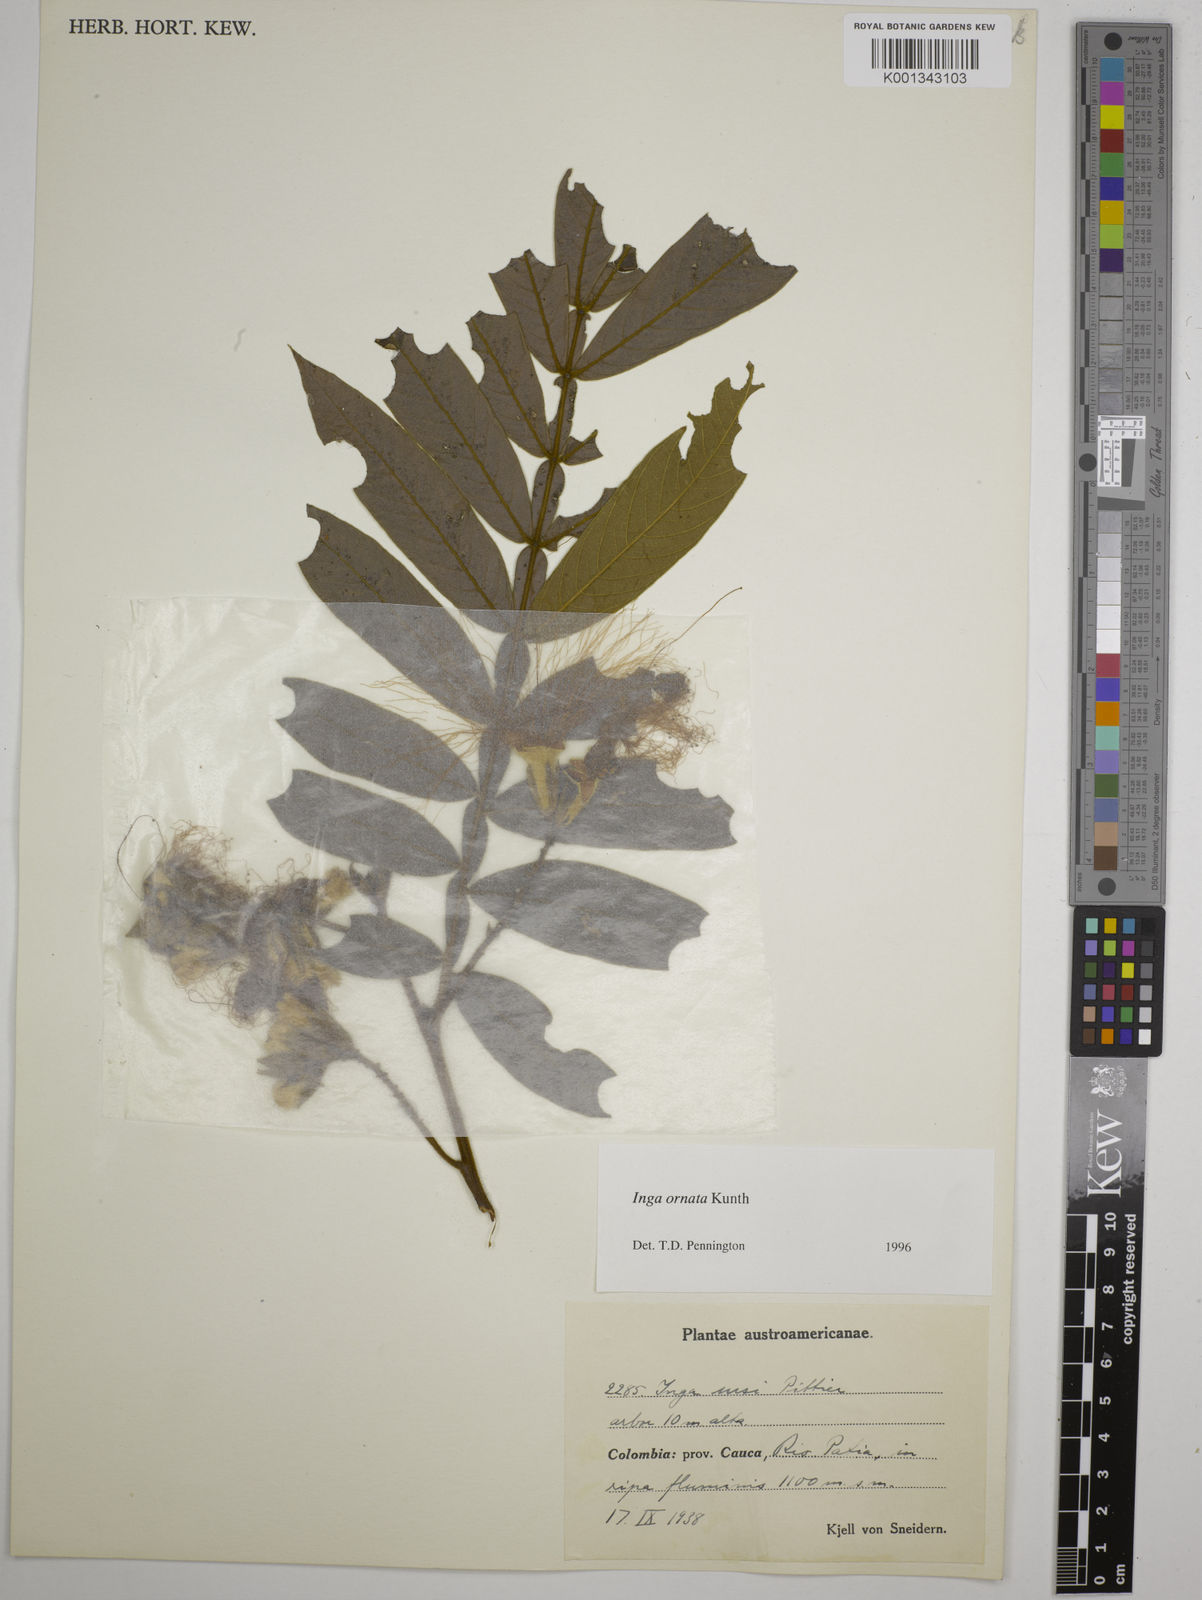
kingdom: Plantae
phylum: Tracheophyta
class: Magnoliopsida
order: Fabales
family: Fabaceae
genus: Inga
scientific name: Inga ornata
